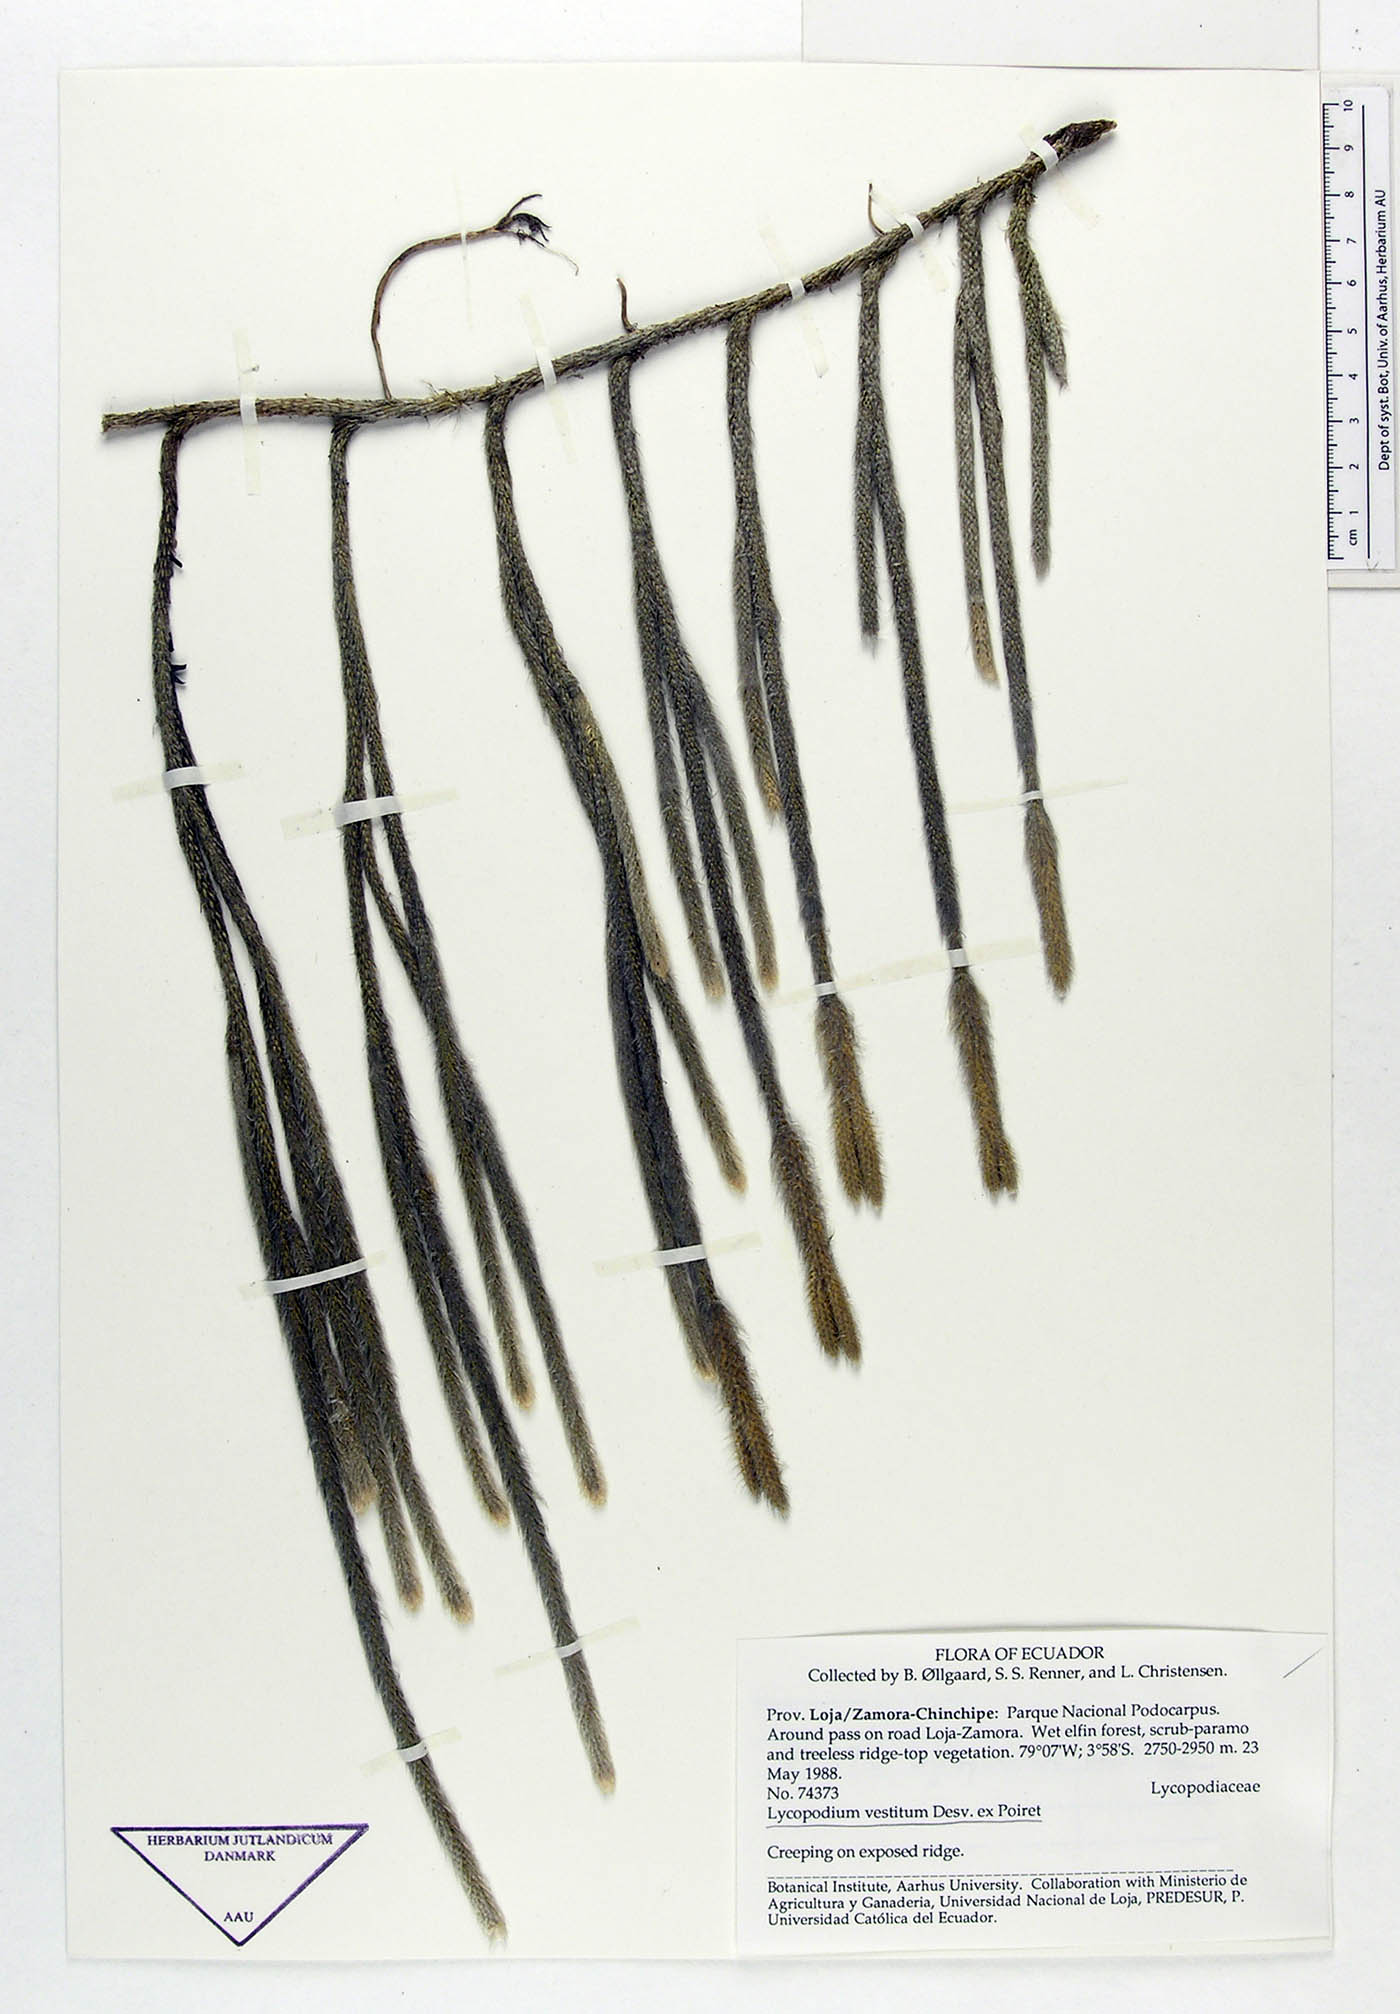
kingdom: Plantae
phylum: Tracheophyta
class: Lycopodiopsida
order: Lycopodiales
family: Lycopodiaceae
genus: Lycopodium
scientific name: Lycopodium vestitum
